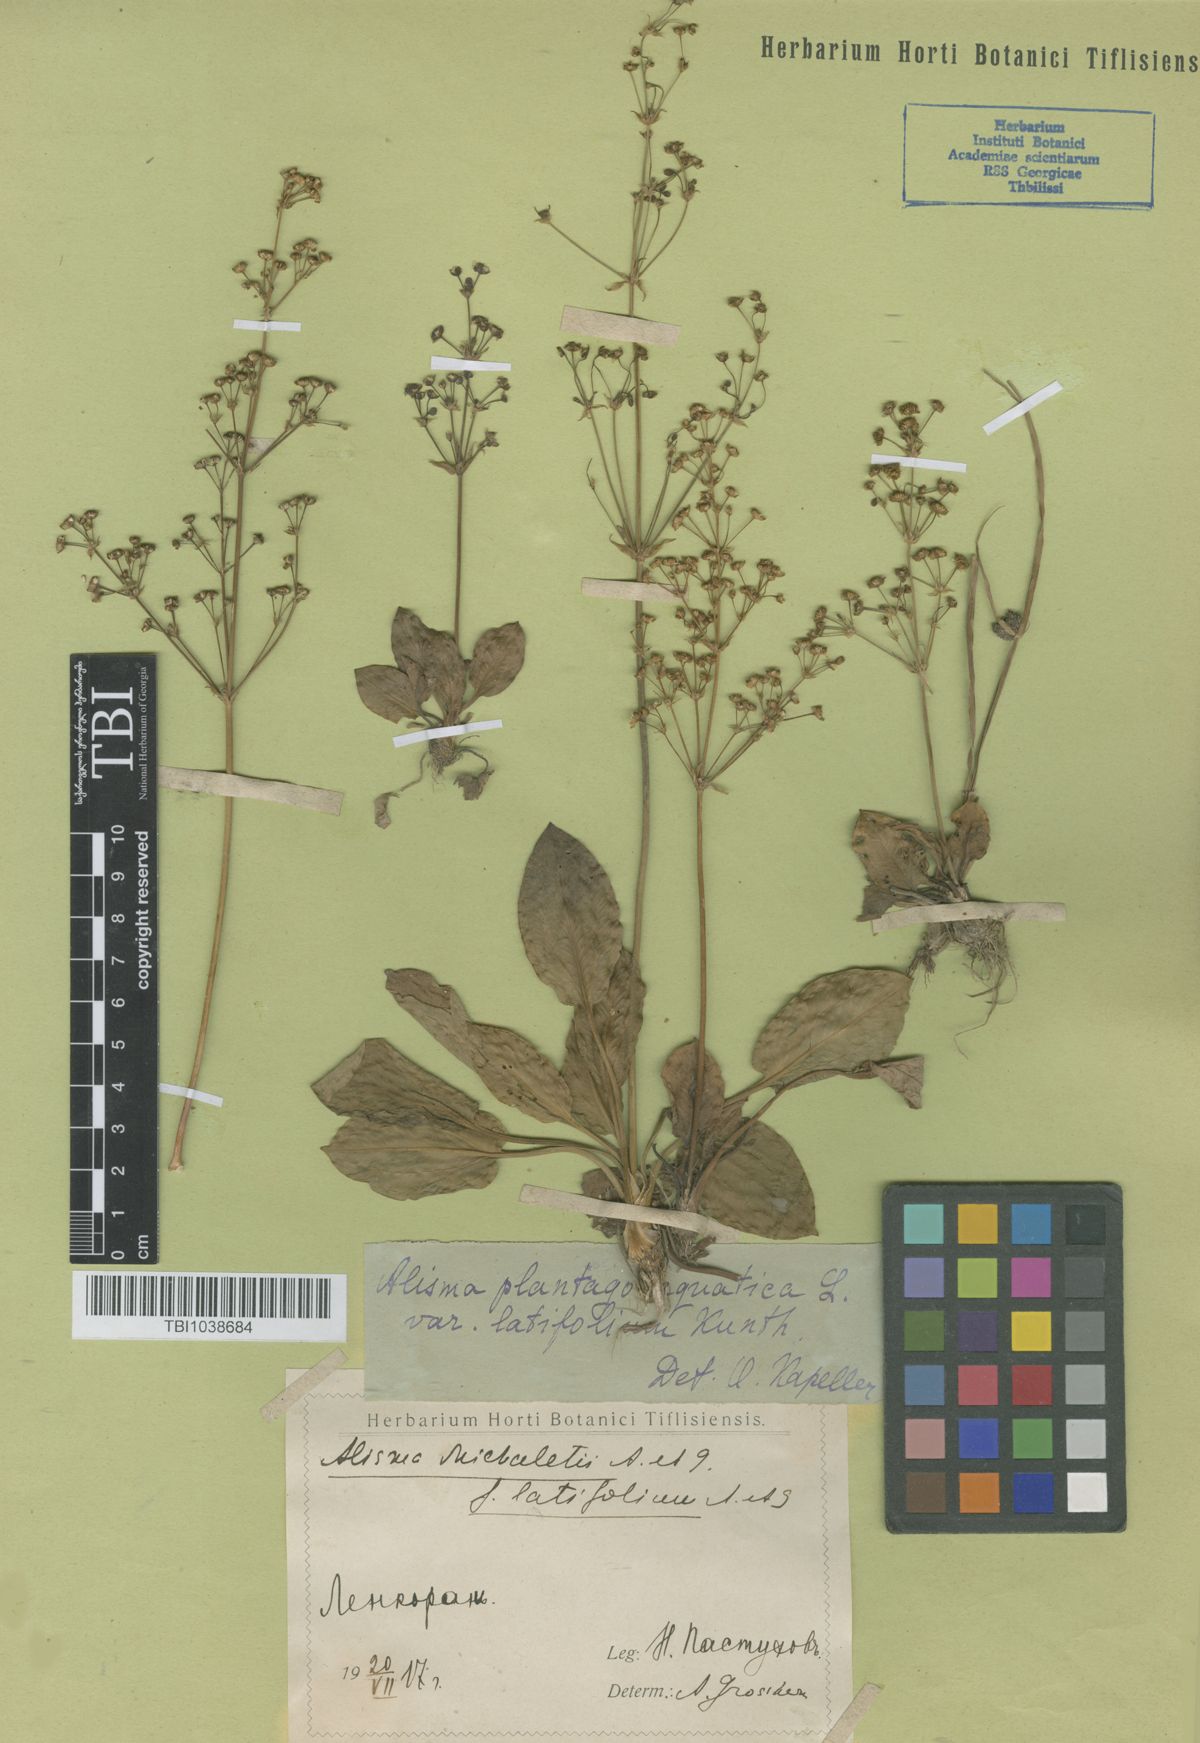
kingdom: Plantae
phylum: Tracheophyta
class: Liliopsida
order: Alismatales
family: Alismataceae
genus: Alisma
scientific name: Alisma plantago-aquatica
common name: Water-plantain
